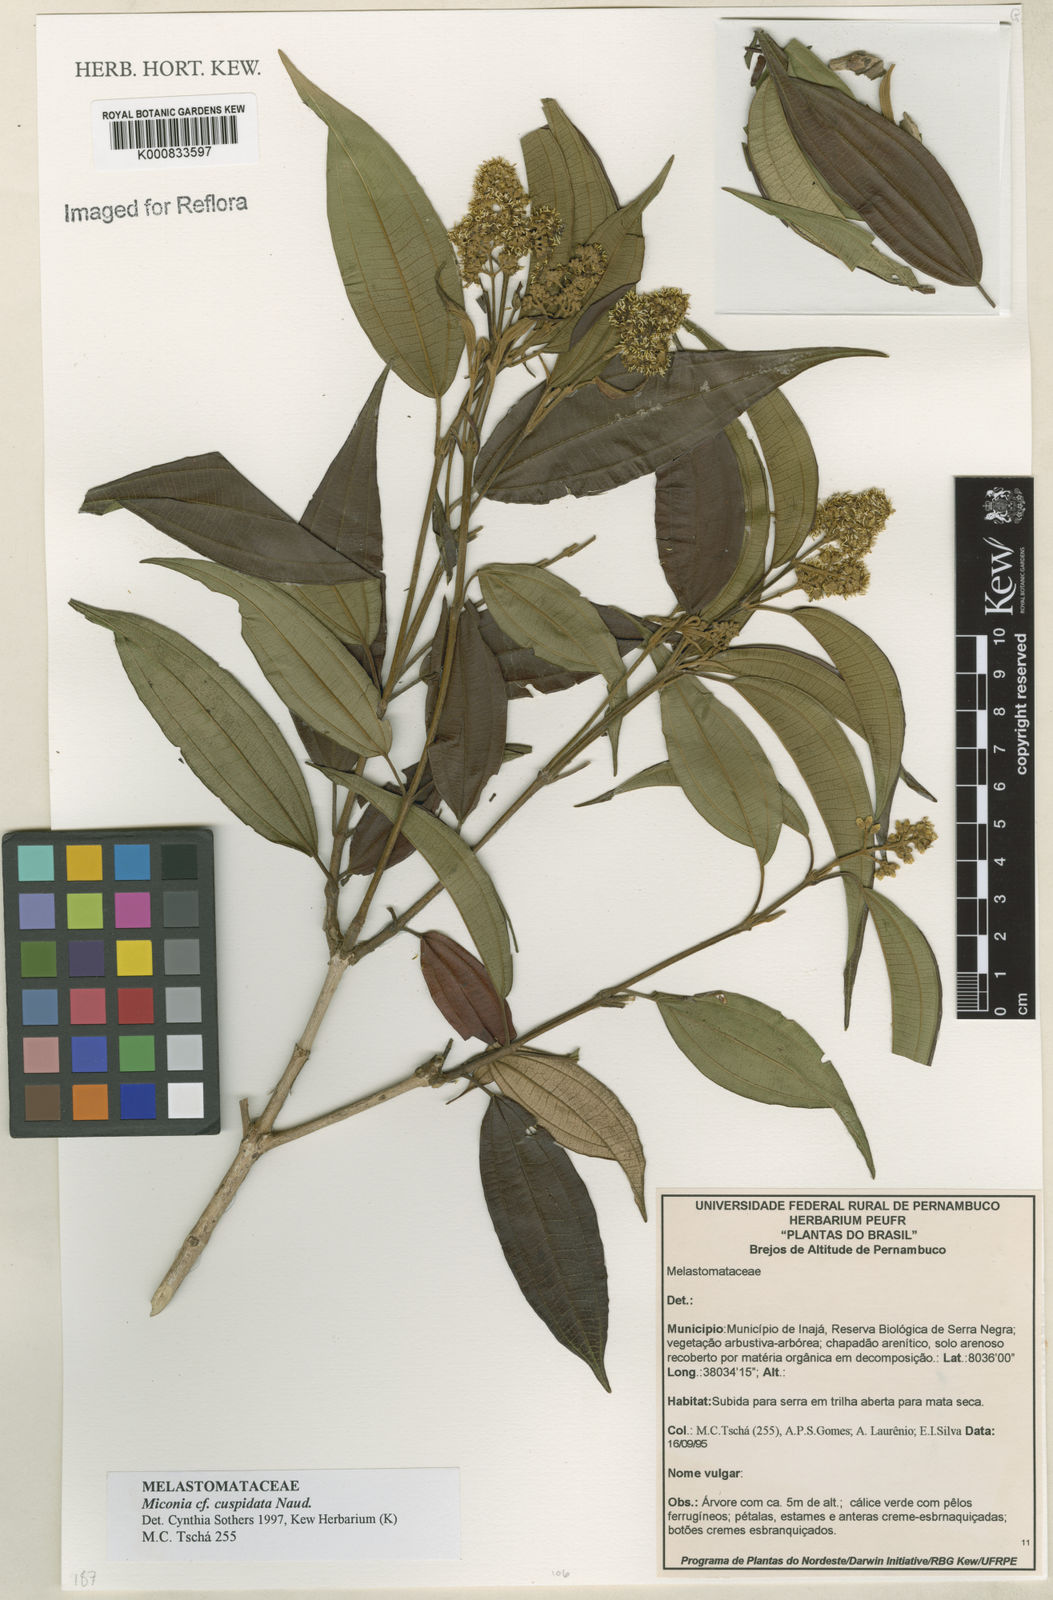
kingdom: Plantae
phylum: Tracheophyta
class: Magnoliopsida
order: Myrtales
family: Melastomataceae
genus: Miconia
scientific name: Miconia nordestina
